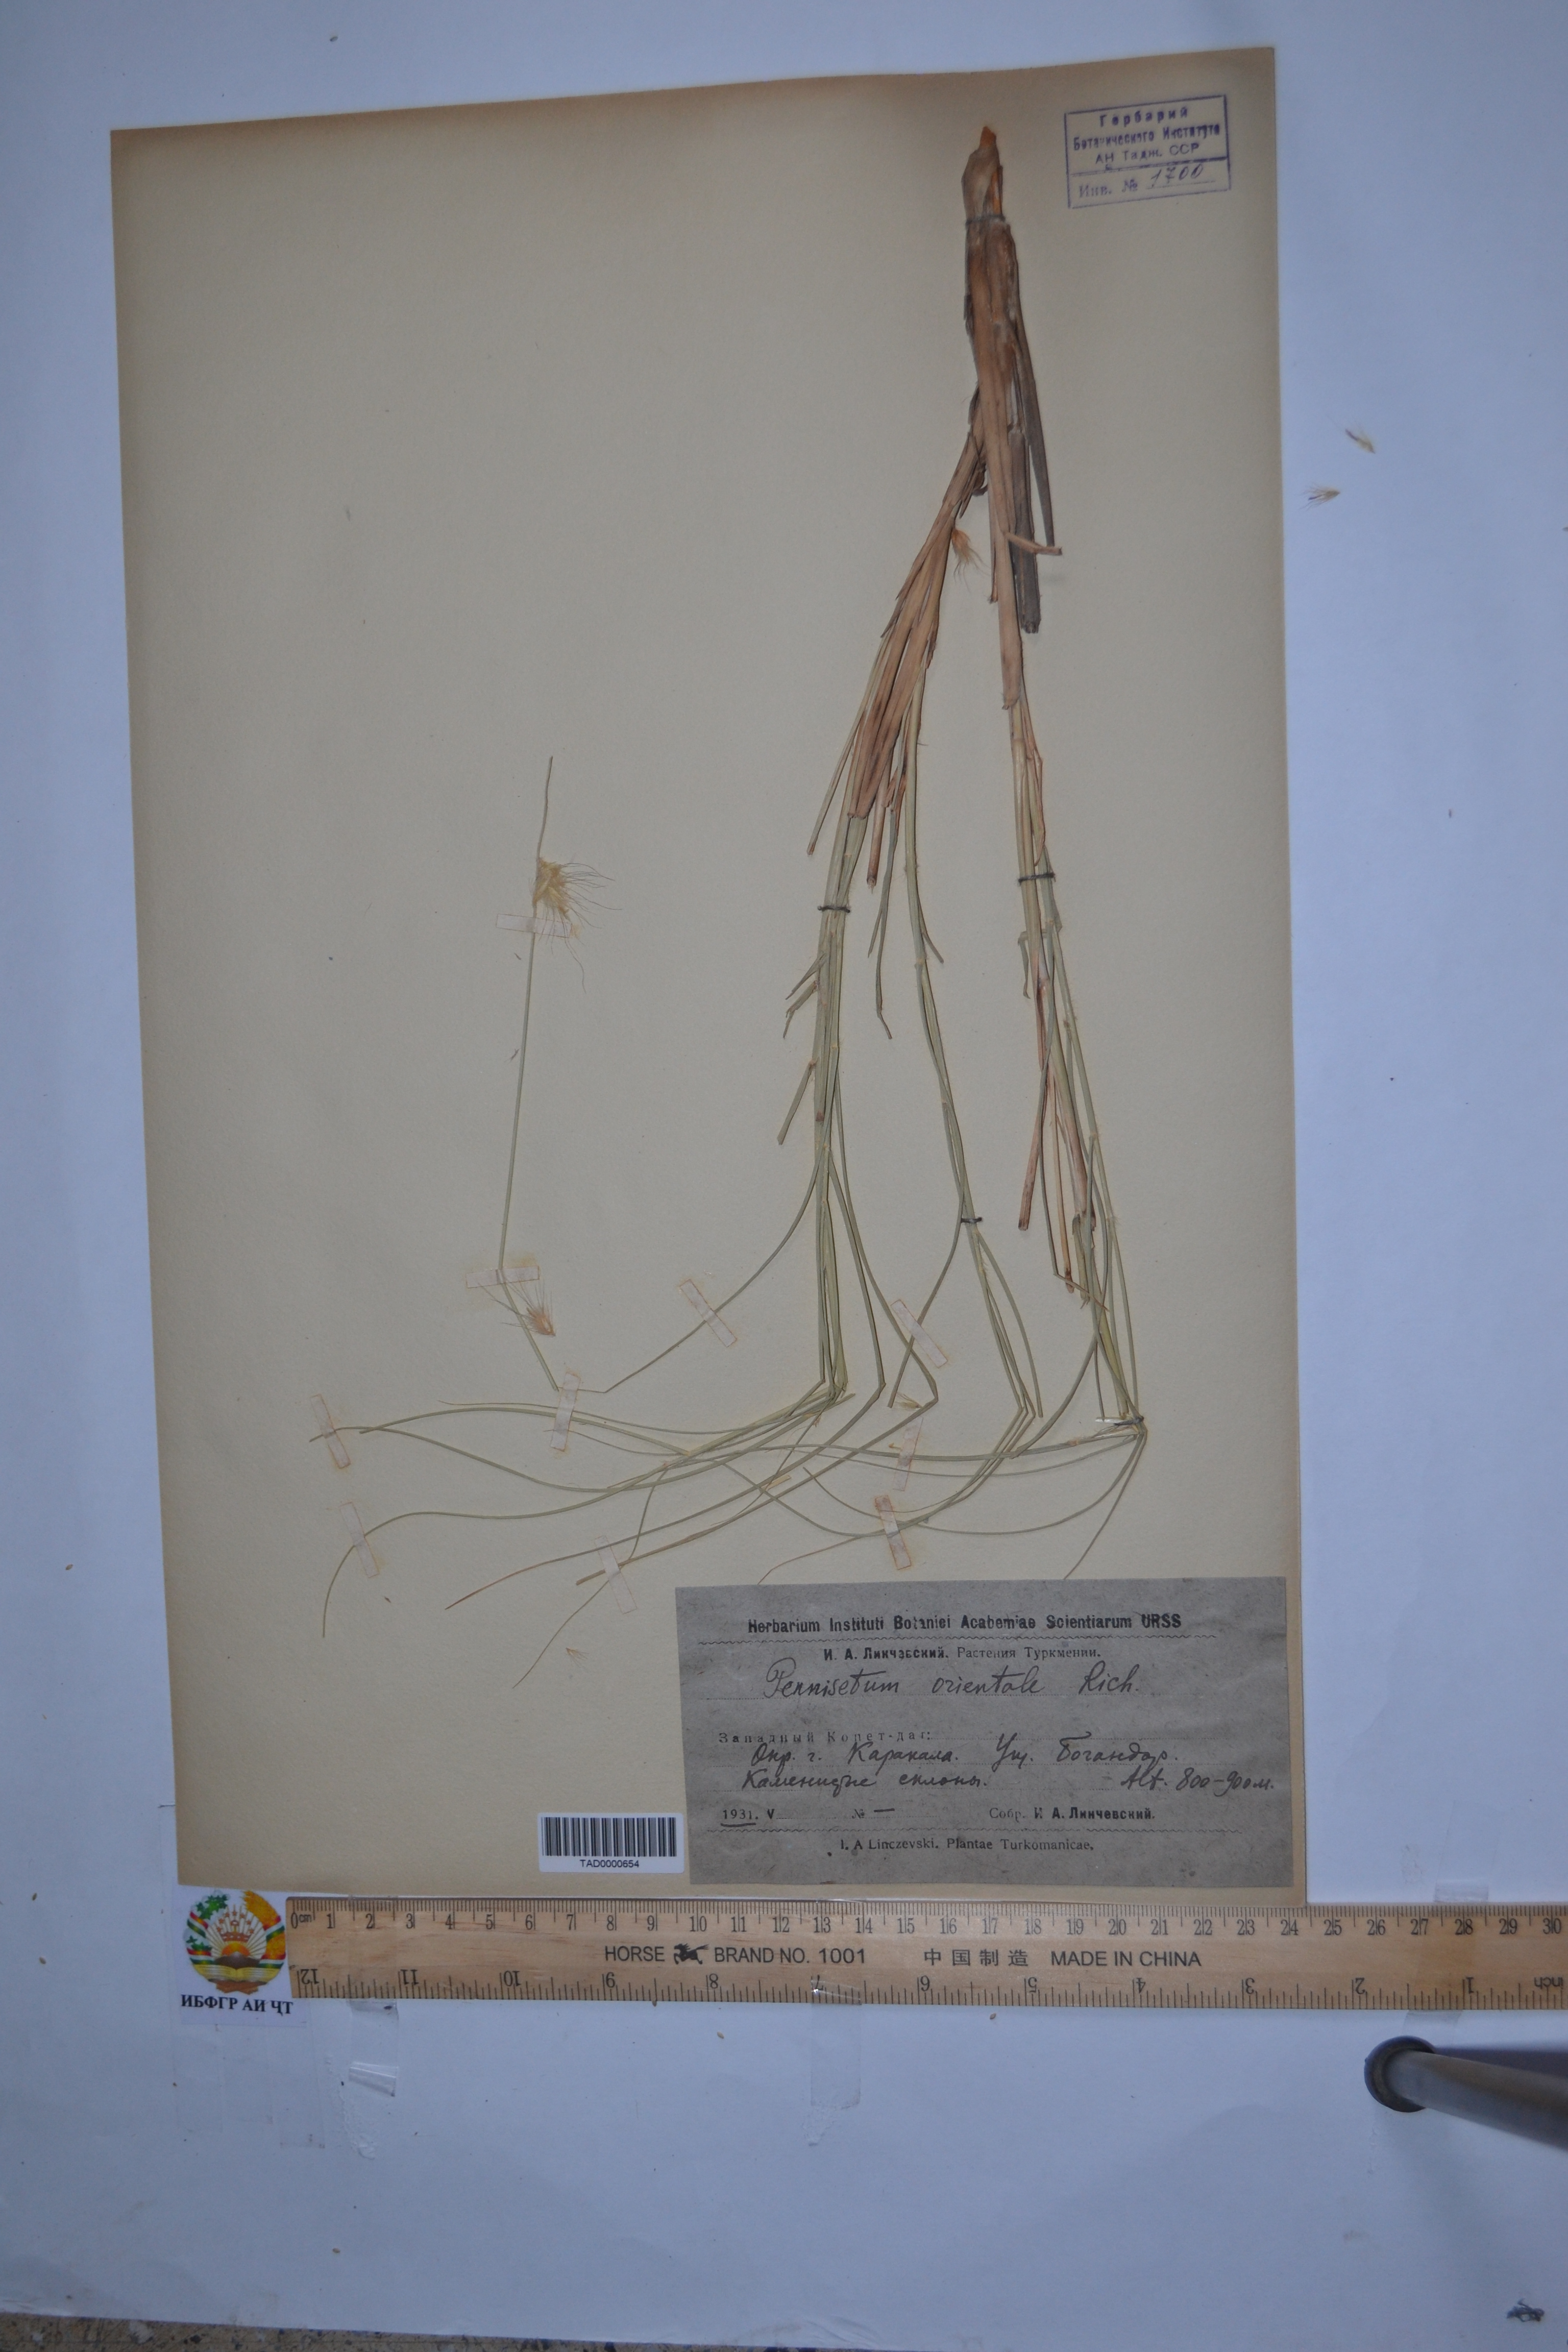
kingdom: Plantae
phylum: Tracheophyta
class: Liliopsida
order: Poales
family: Poaceae
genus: Cenchrus
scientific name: Cenchrus Pennisetum spec
